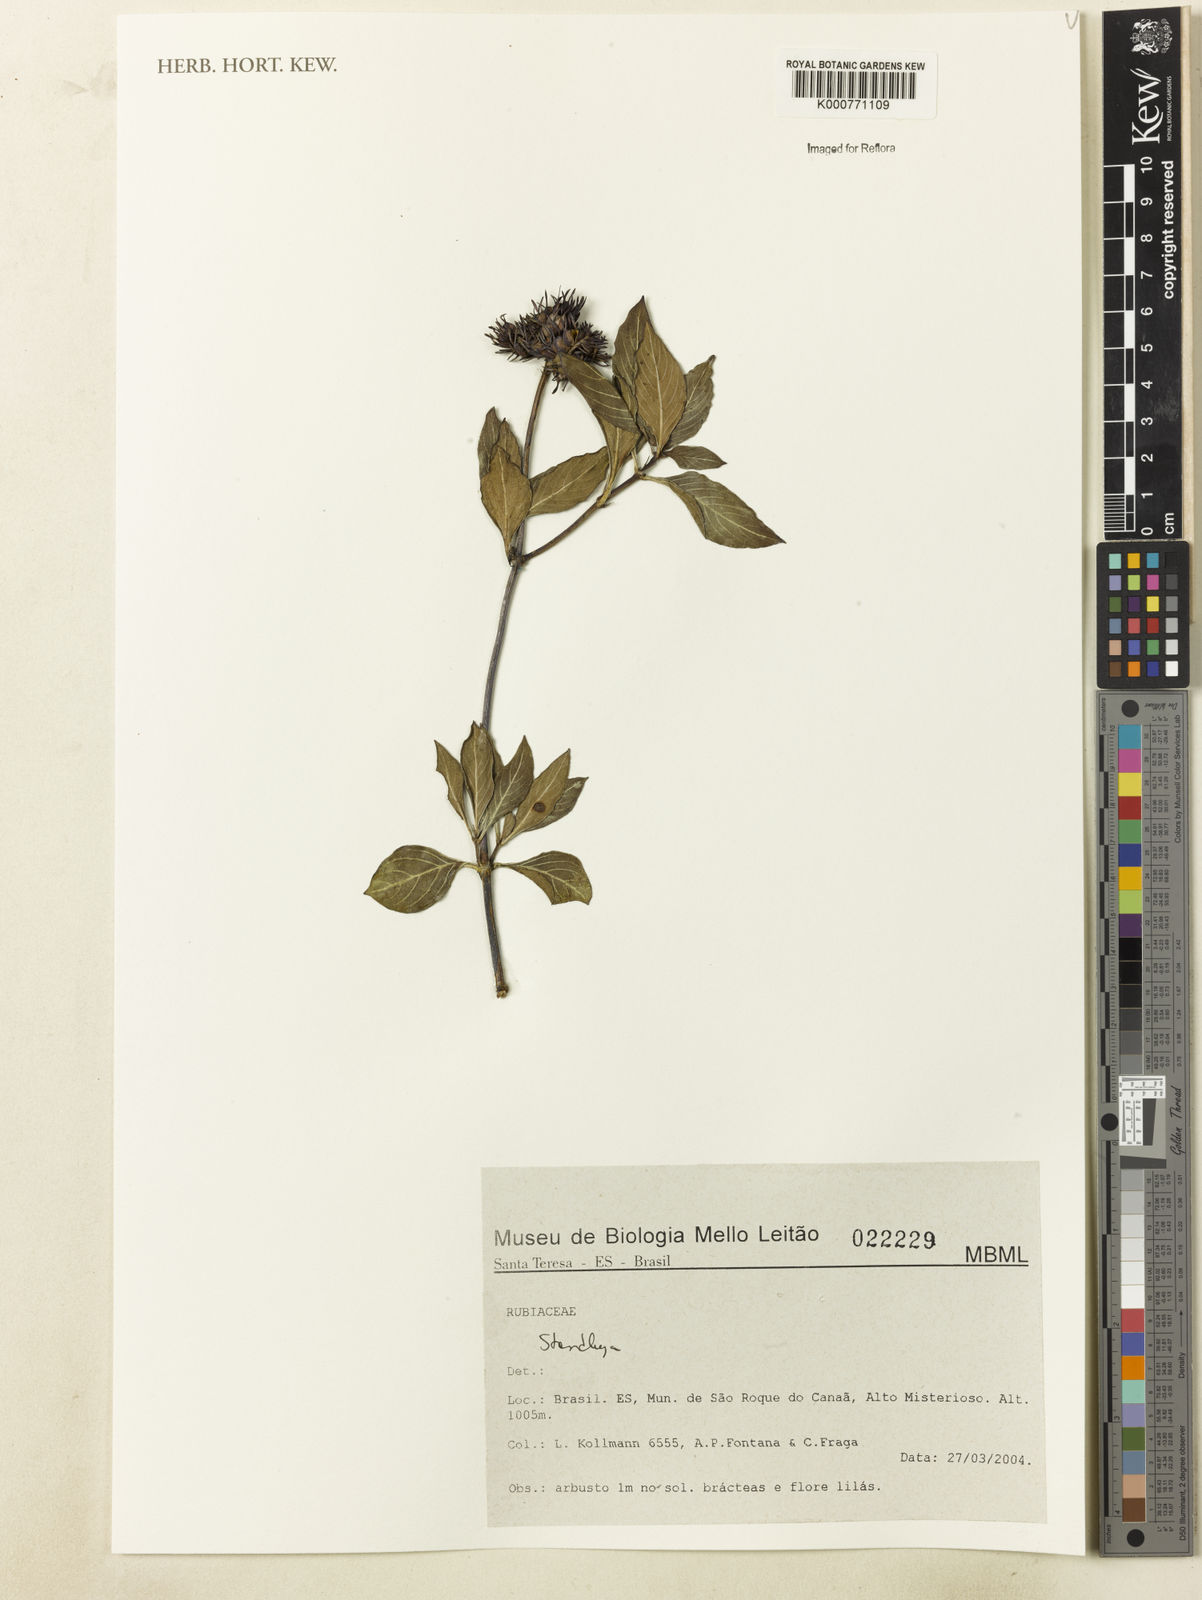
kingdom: Plantae
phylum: Tracheophyta
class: Magnoliopsida
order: Gentianales
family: Rubiaceae
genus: Standleya
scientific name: Standleya
